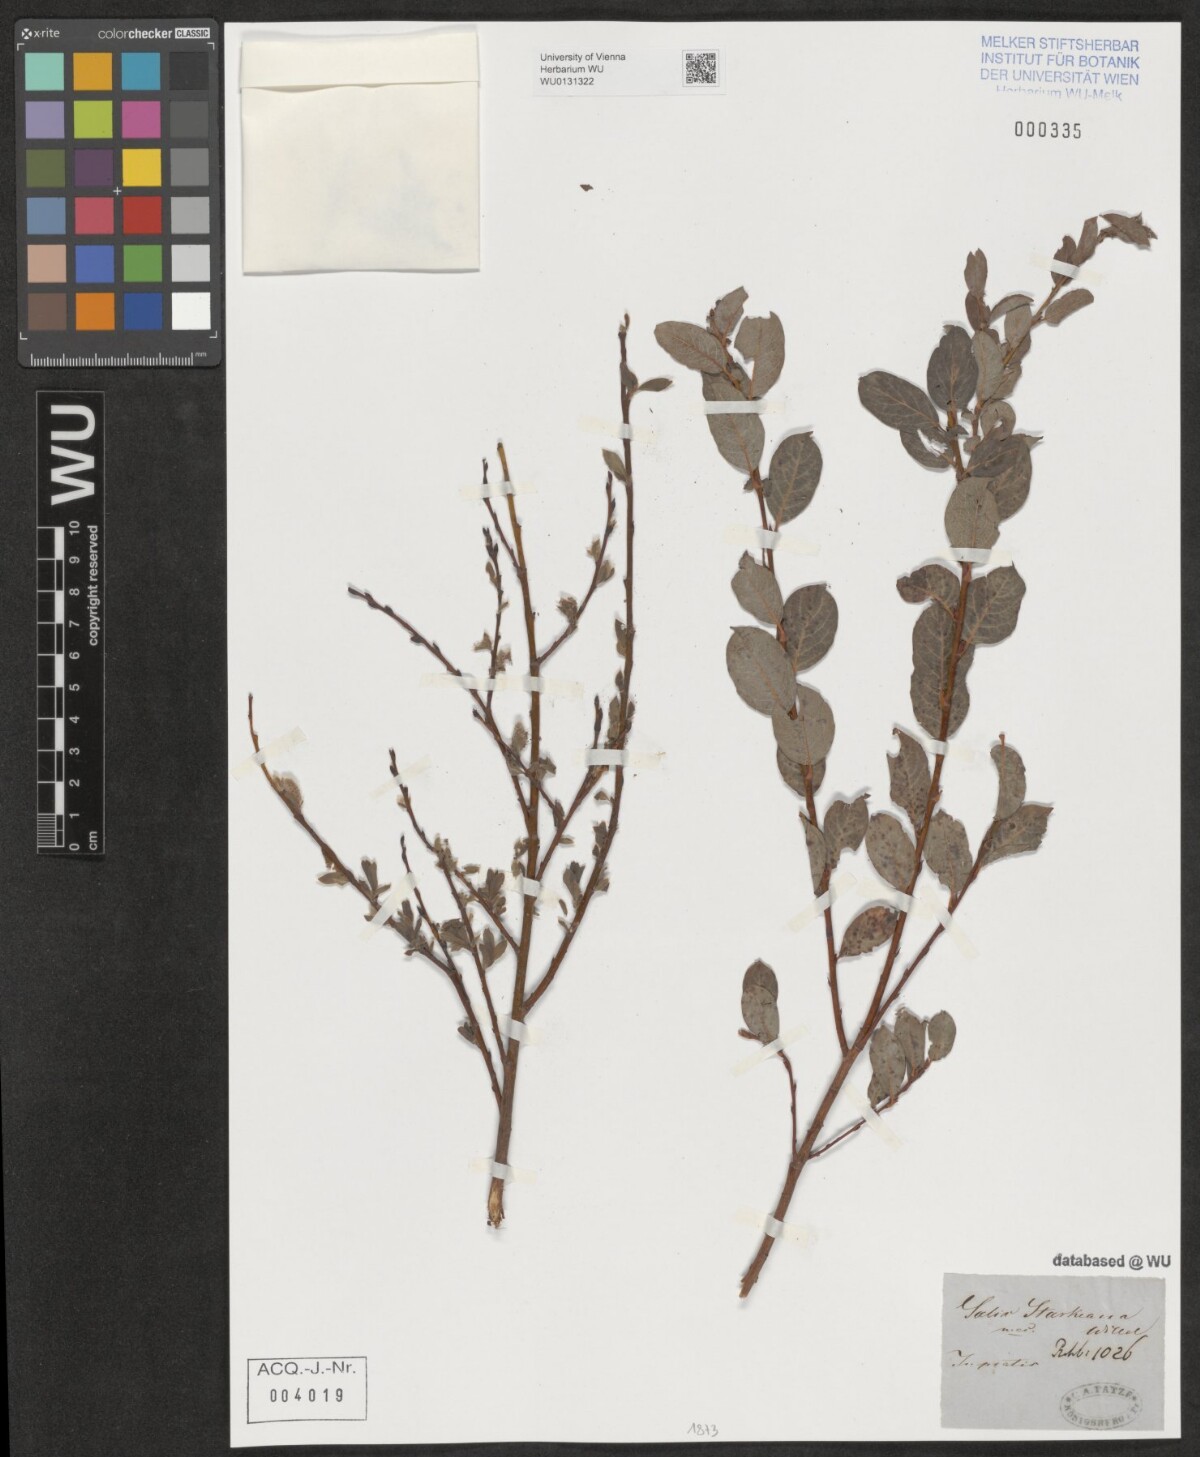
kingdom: Plantae
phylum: Tracheophyta
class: Magnoliopsida
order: Malpighiales
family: Salicaceae
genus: Salix
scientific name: Salix starkeana
